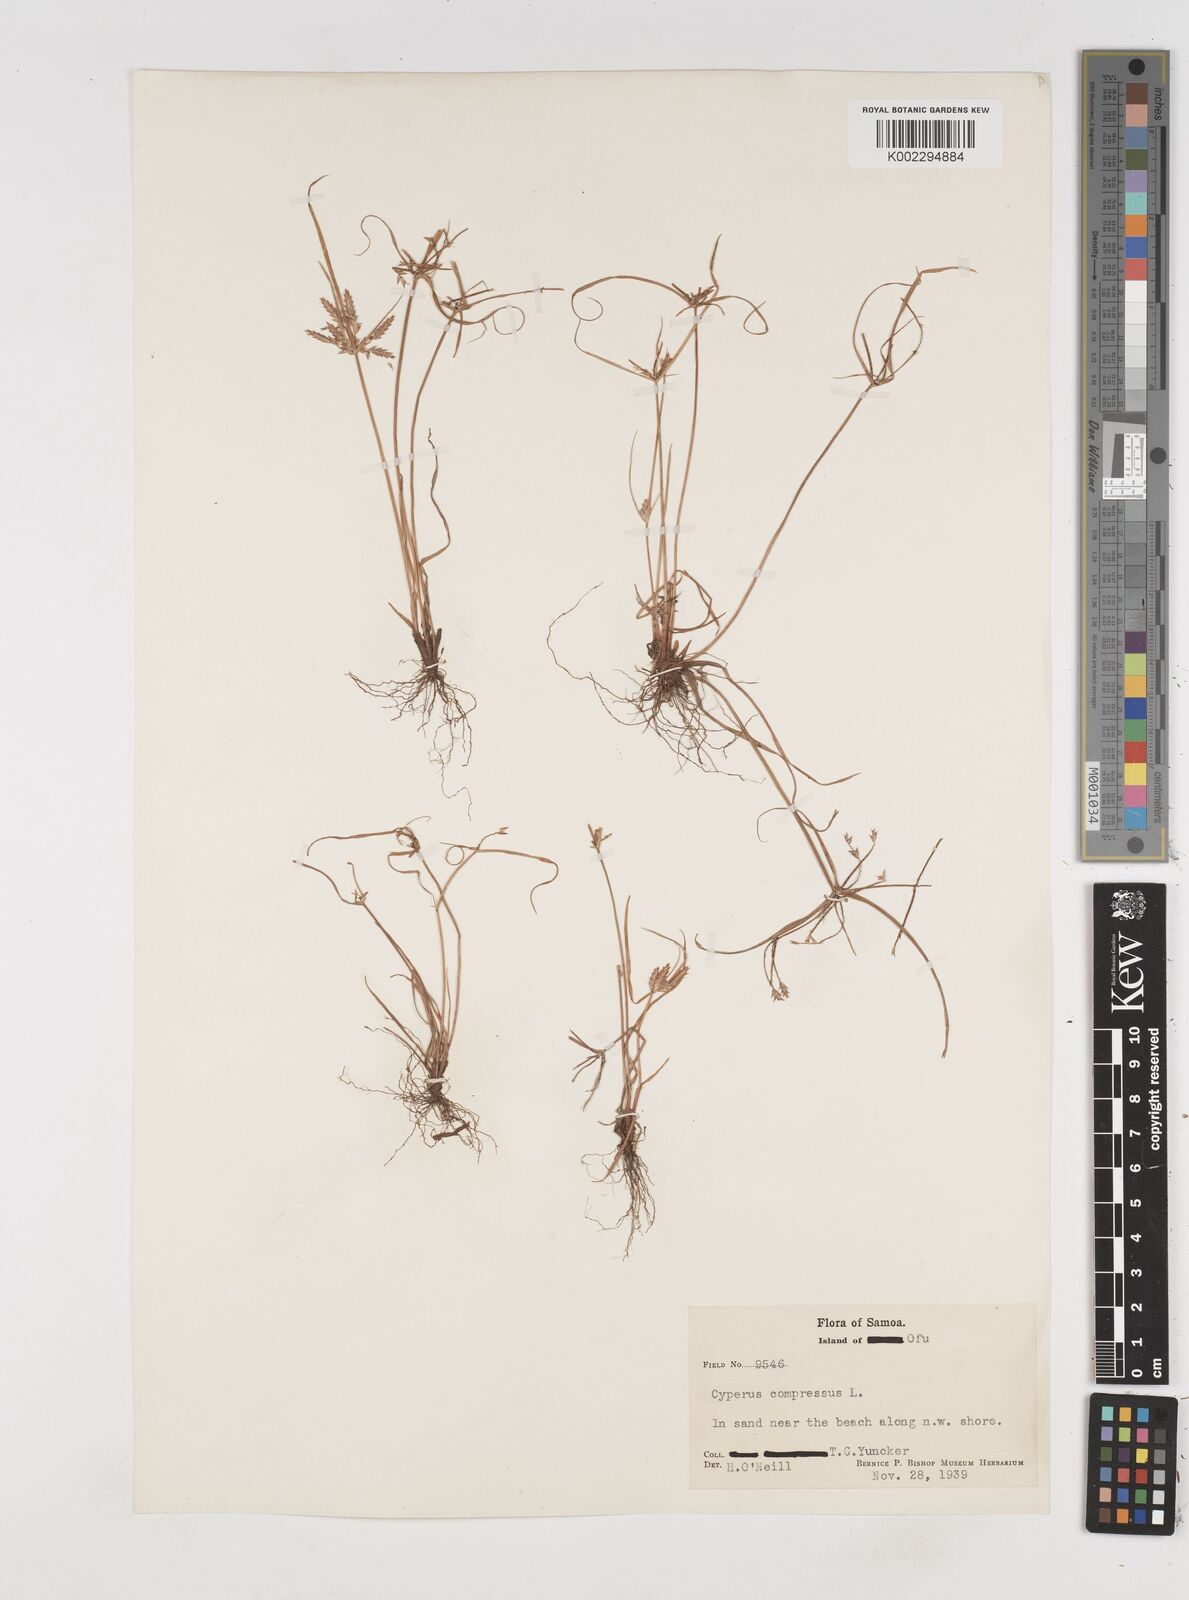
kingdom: Plantae
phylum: Tracheophyta
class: Liliopsida
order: Poales
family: Cyperaceae
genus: Cyperus
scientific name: Cyperus compressus
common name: Poorland flatsedge
